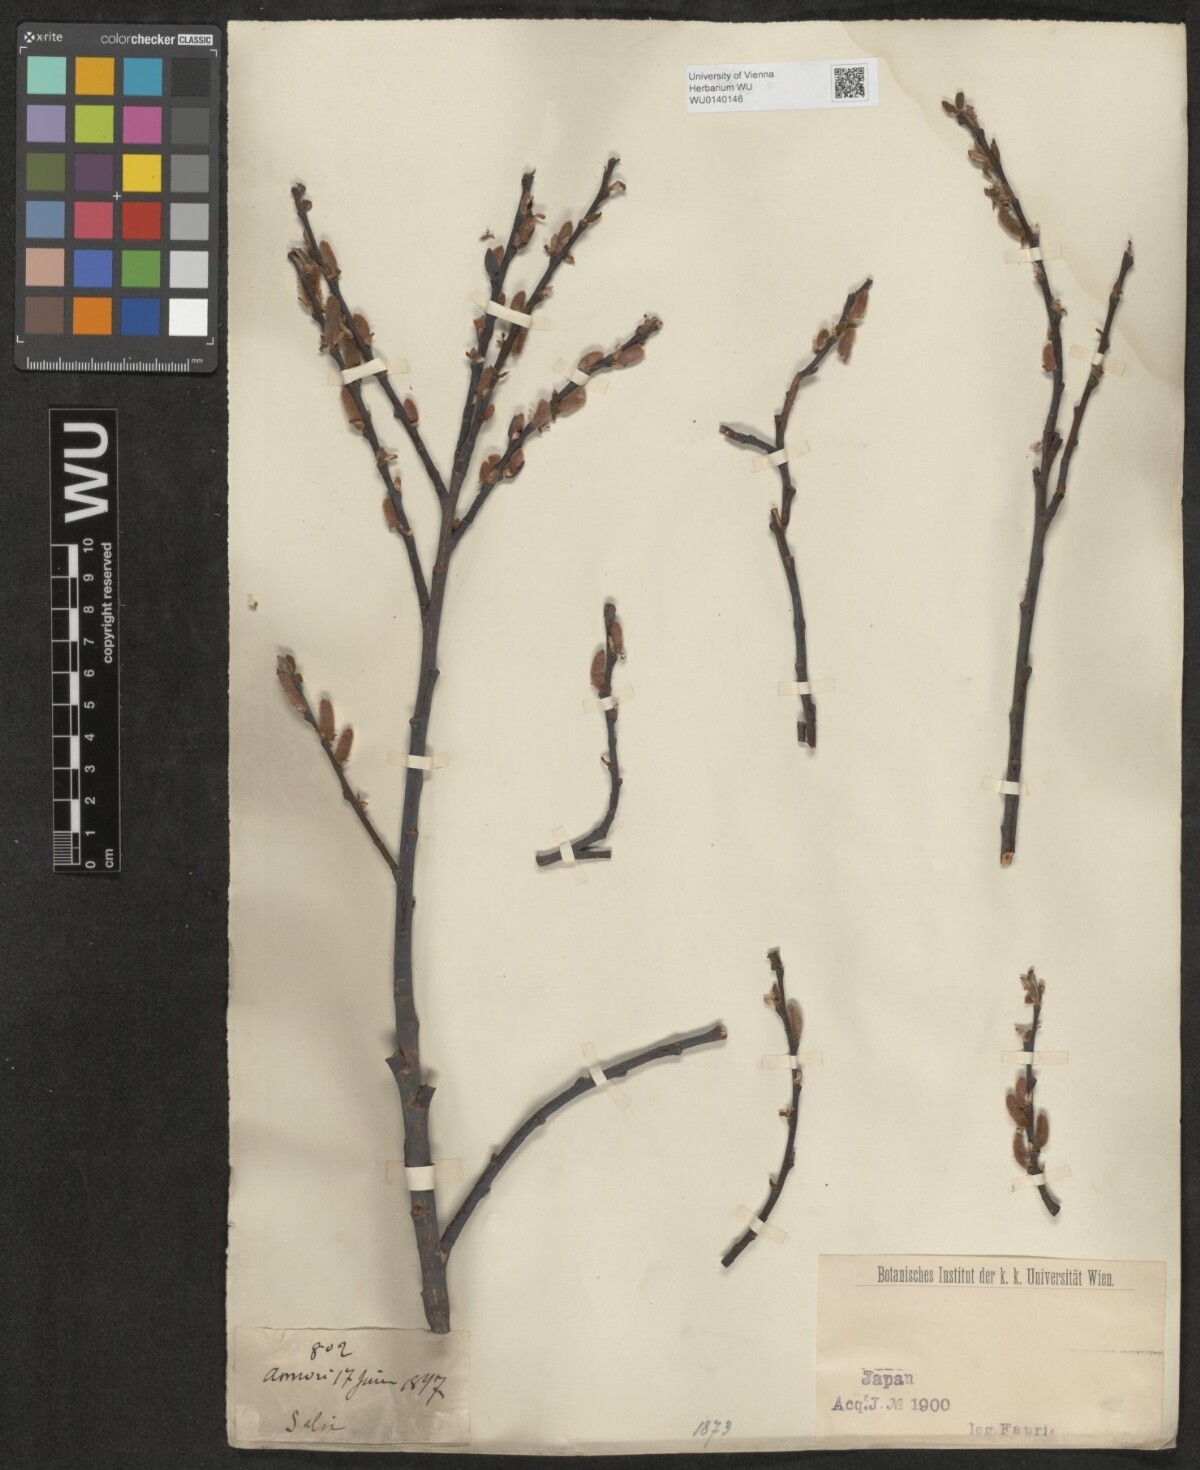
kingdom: Plantae
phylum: Tracheophyta
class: Magnoliopsida
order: Malpighiales
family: Salicaceae
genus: Salix
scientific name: Salix
